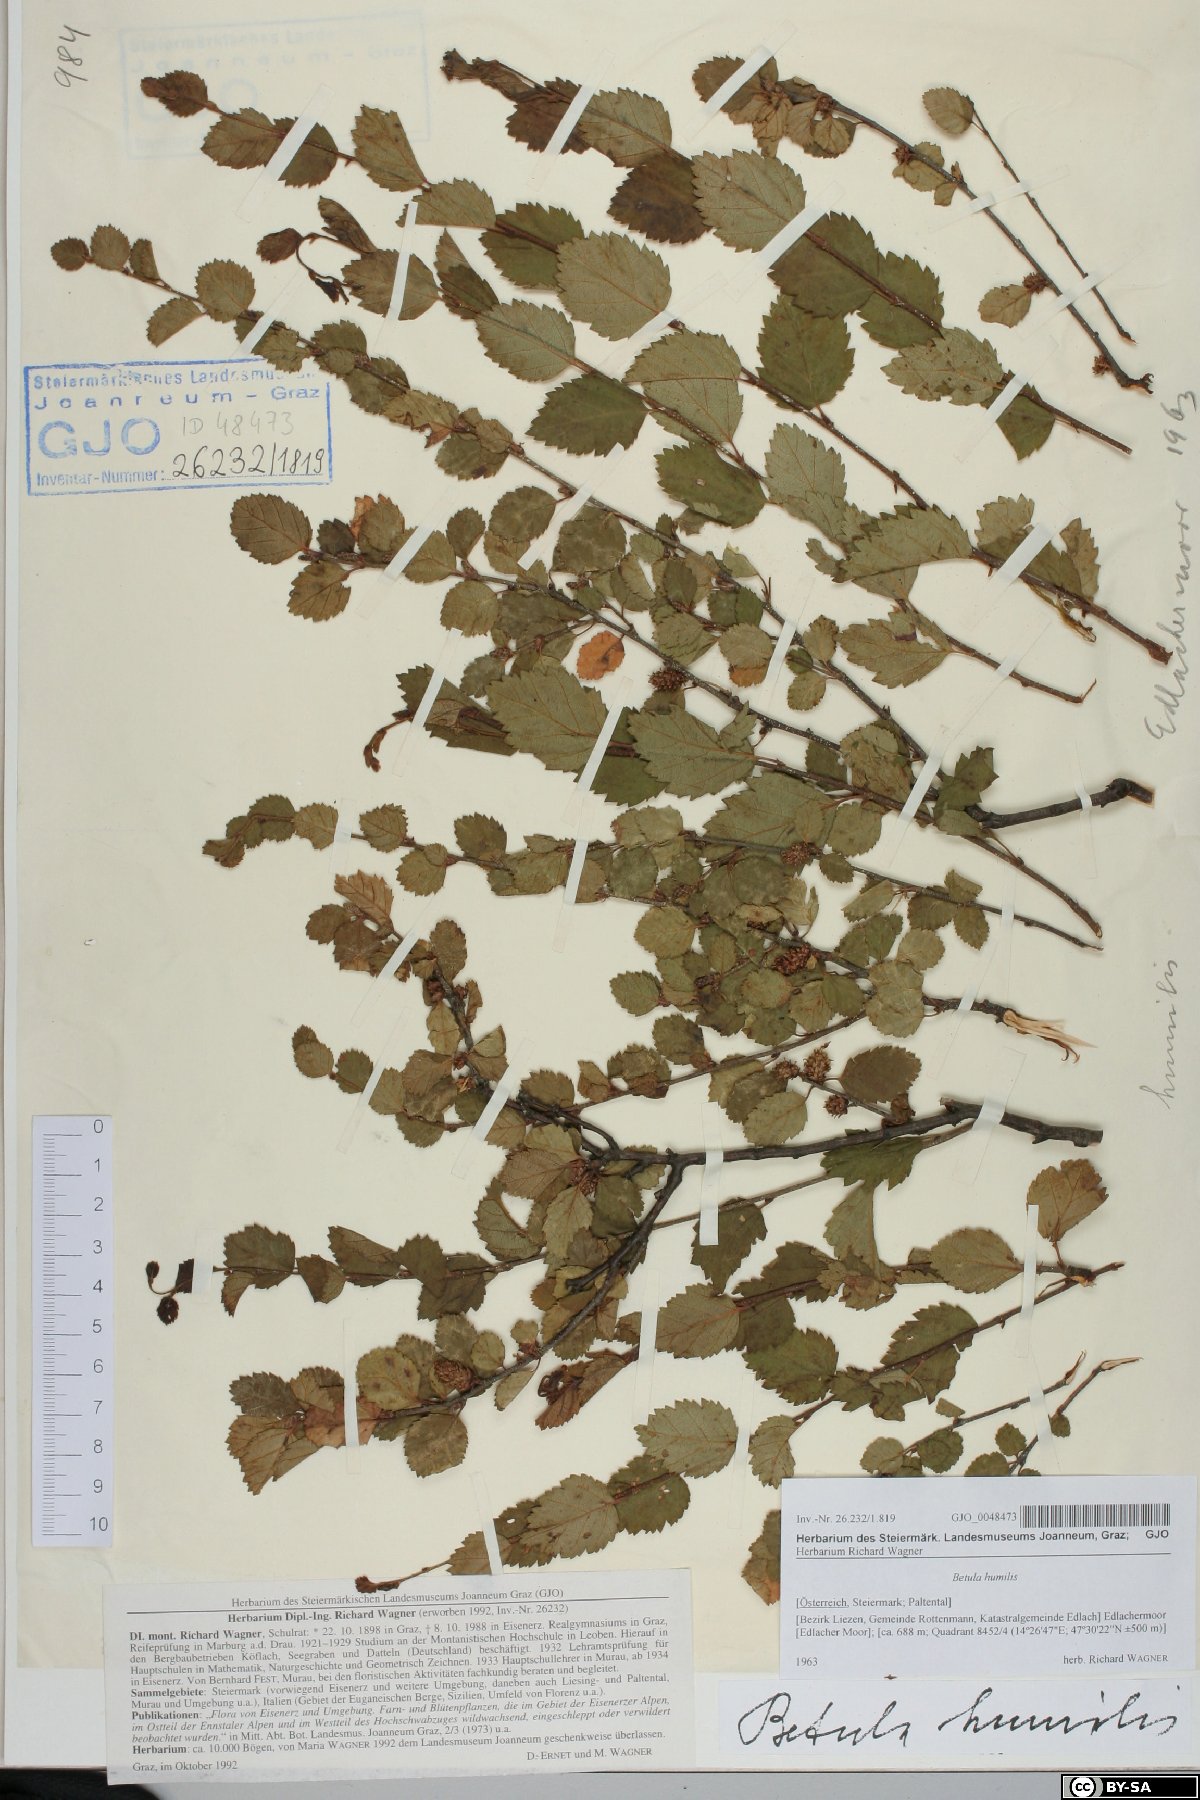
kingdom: Plantae
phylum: Tracheophyta
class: Magnoliopsida
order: Fagales
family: Betulaceae
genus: Betula
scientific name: Betula humilis
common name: Shrubby birch
